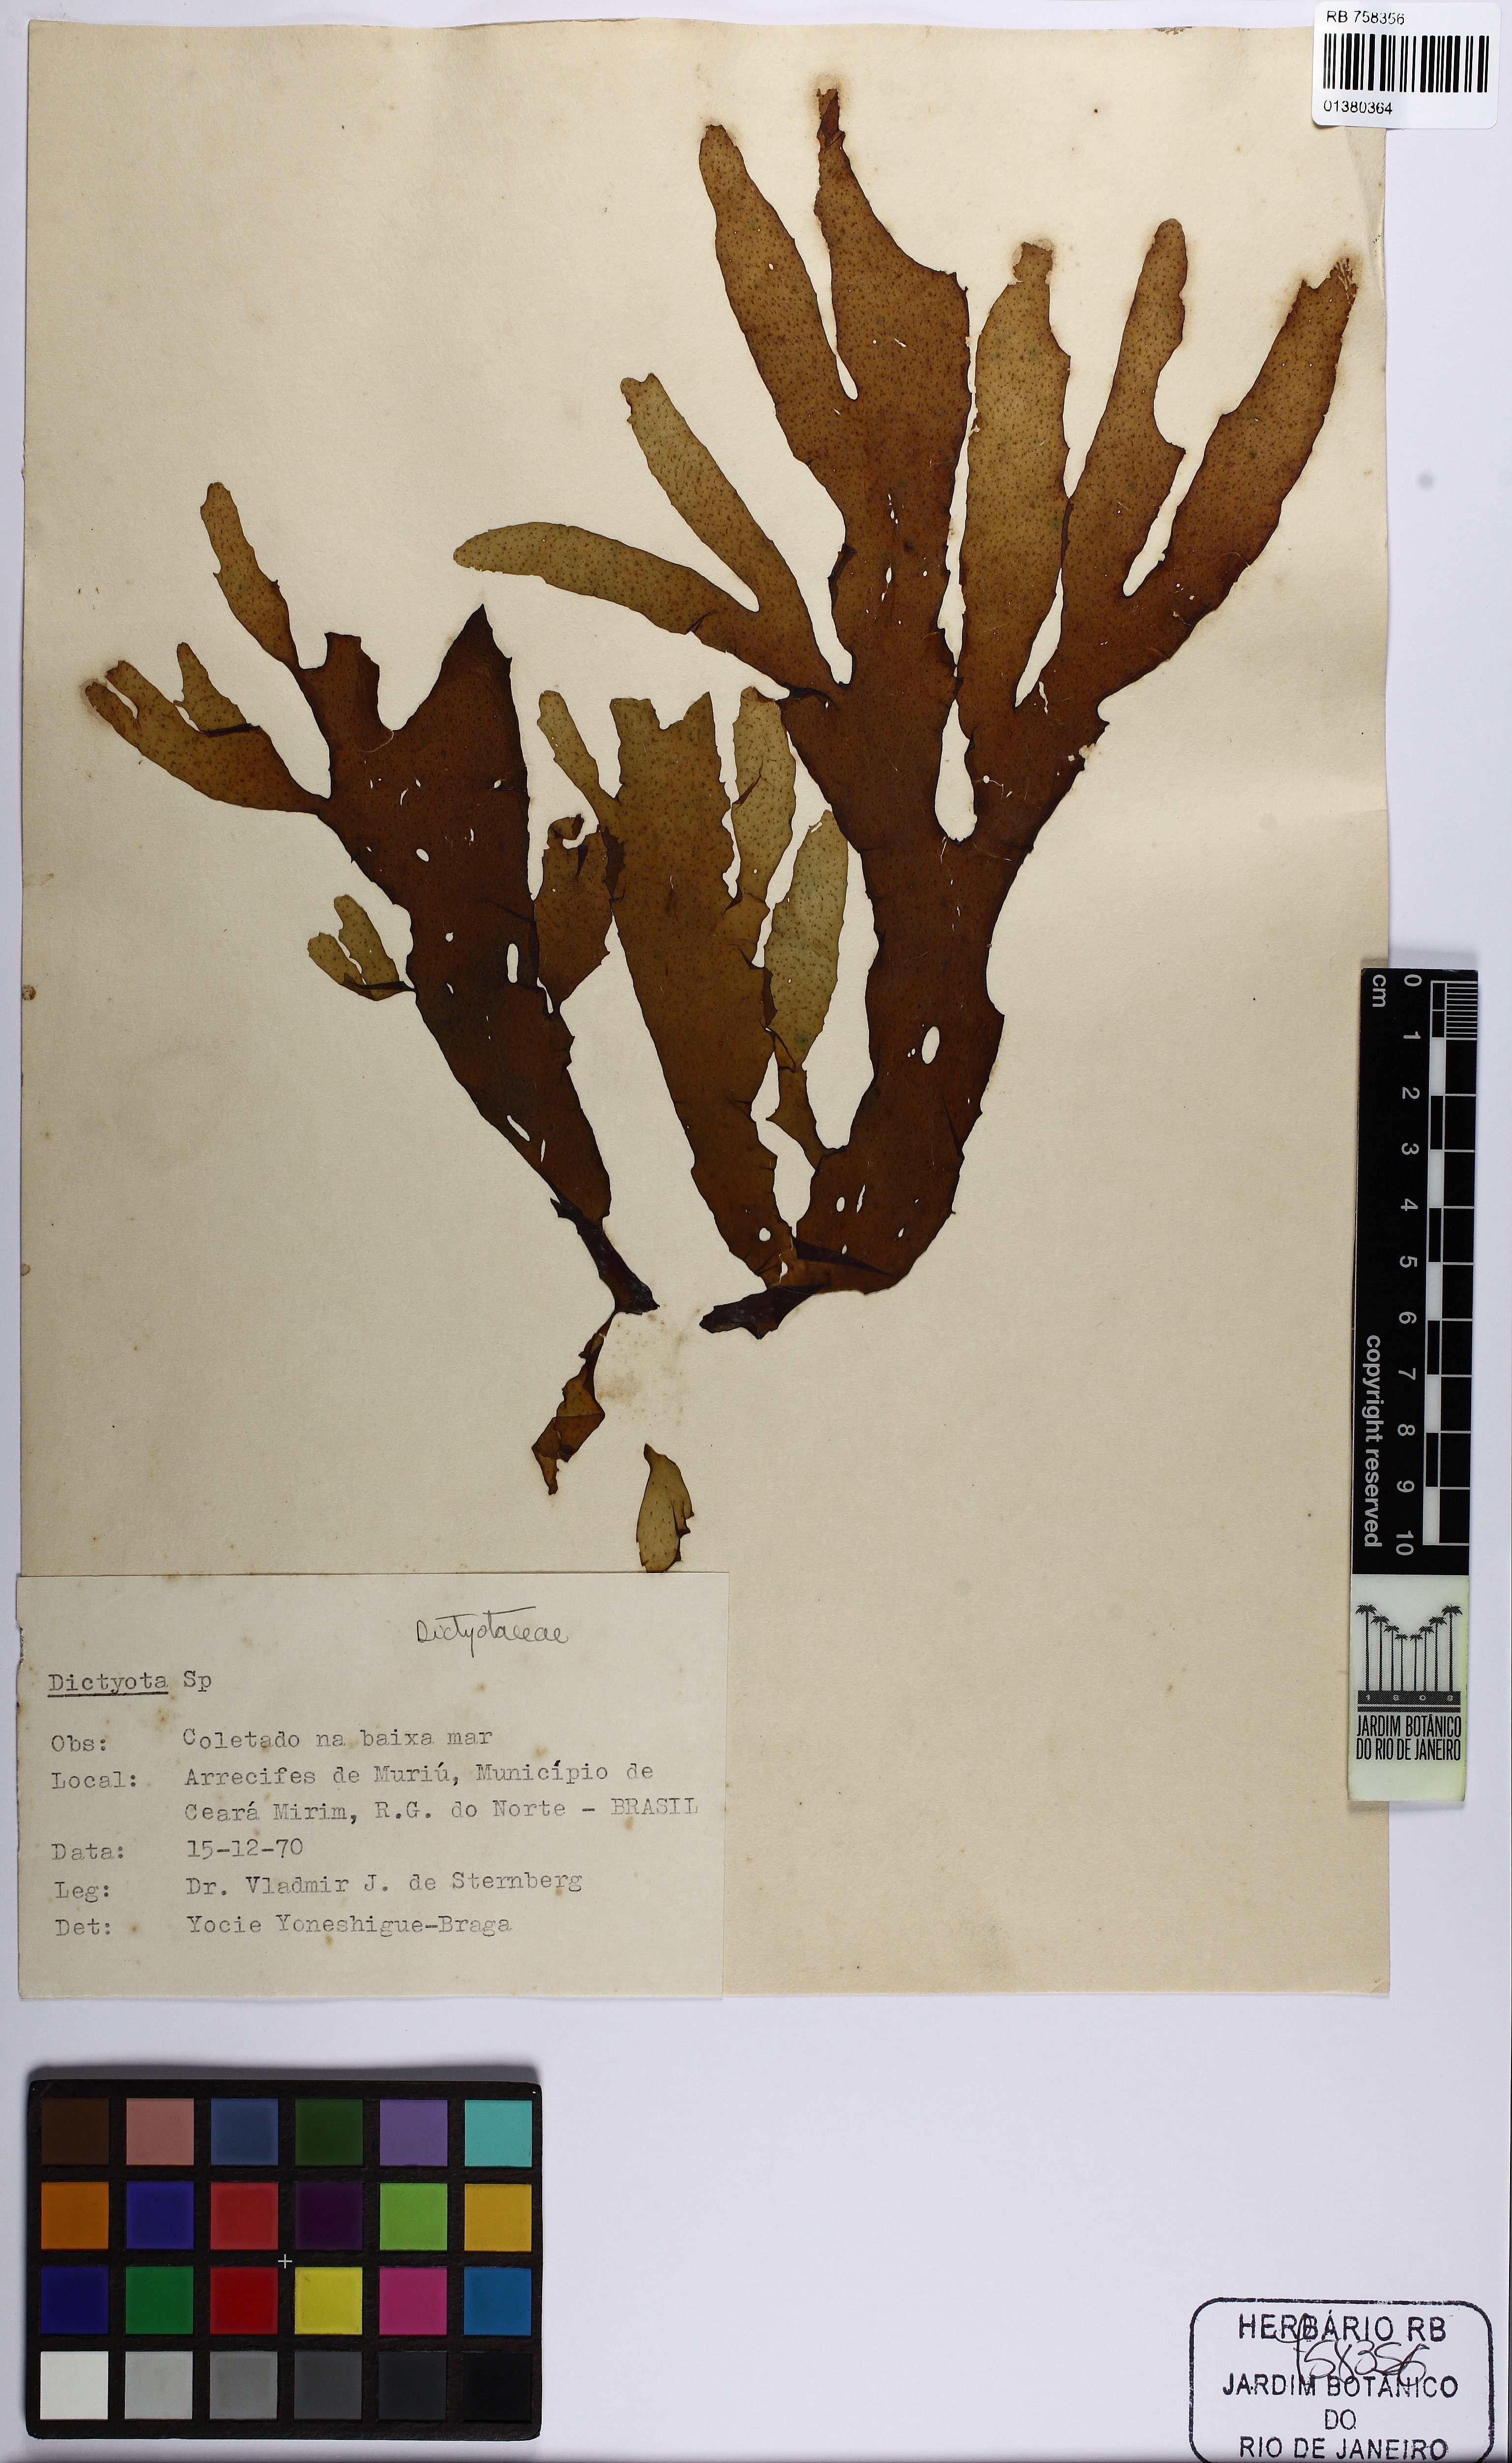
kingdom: Chromista
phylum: Ochrophyta
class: Phaeophyceae
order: Dictyotales
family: Dictyotaceae
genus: Dictyota
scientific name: Dictyota
